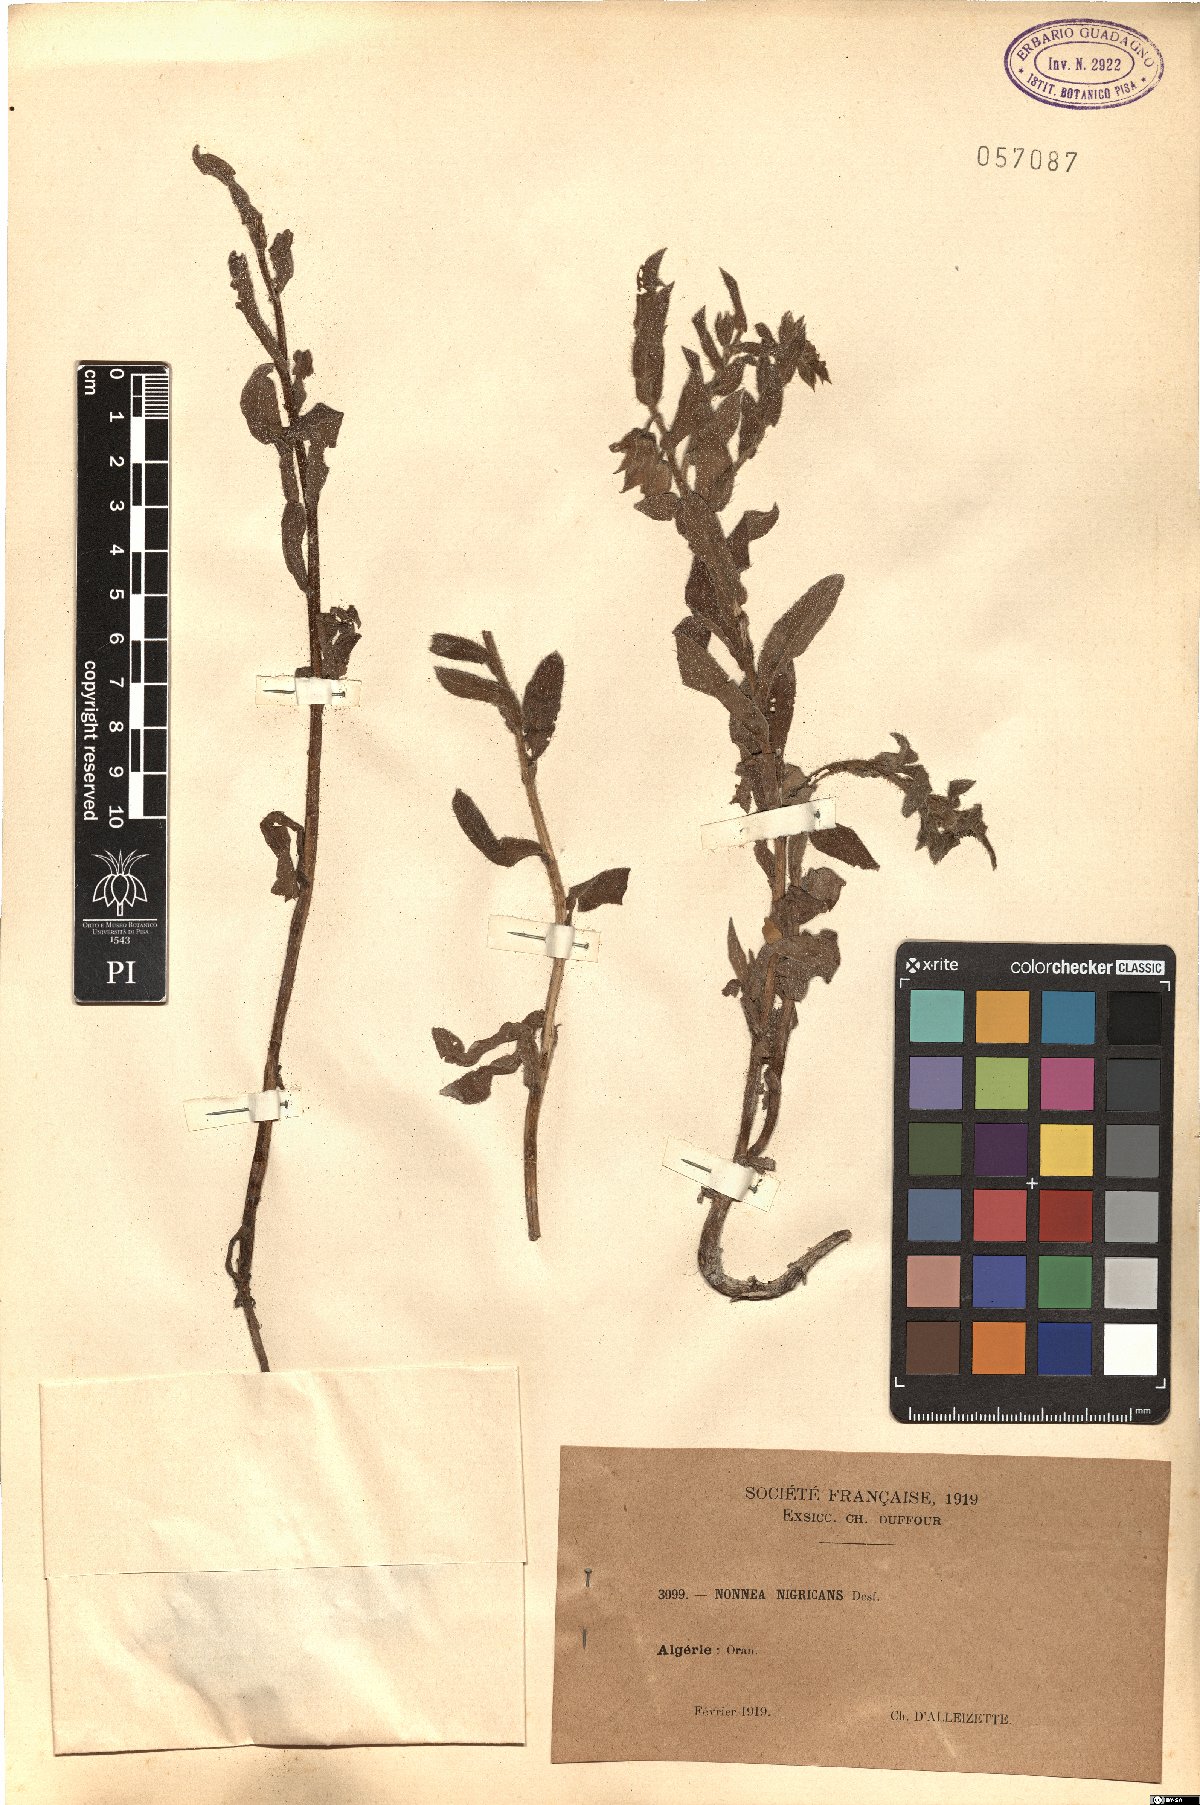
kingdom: Plantae
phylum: Tracheophyta
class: Magnoliopsida
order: Boraginales
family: Boraginaceae
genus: Nonea
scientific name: Nonea vesicaria
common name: Red monkswort
